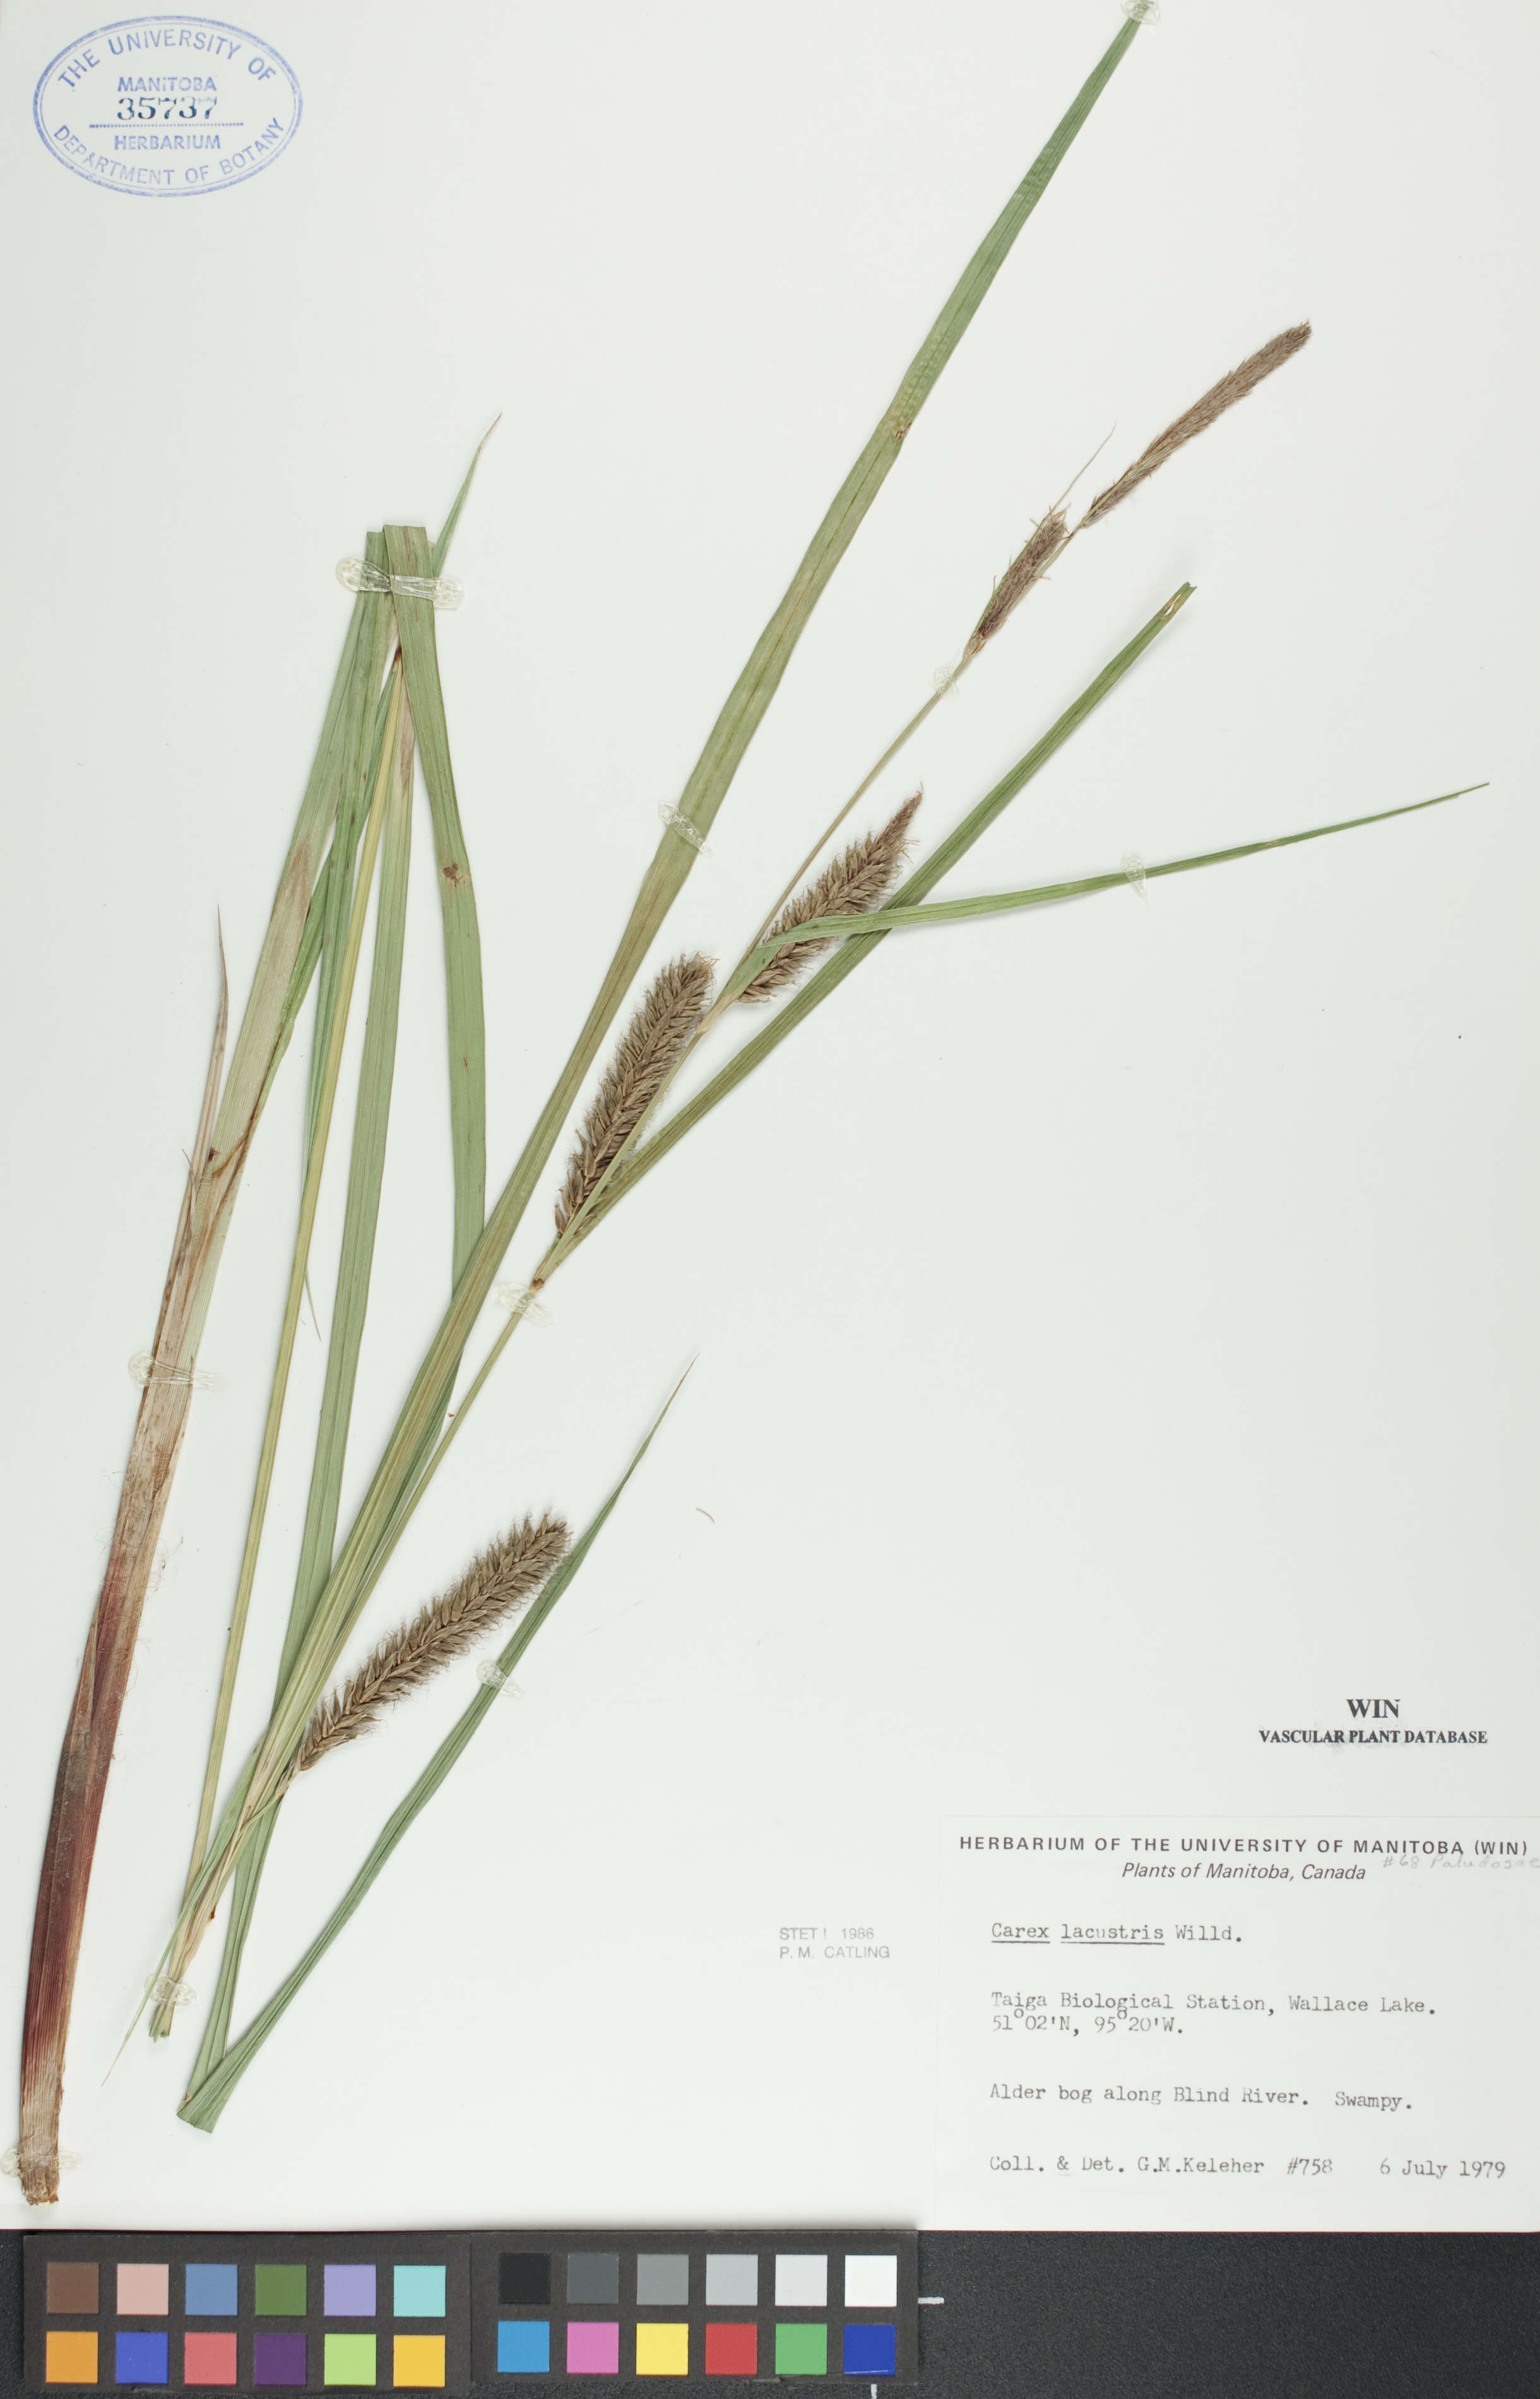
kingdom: Plantae
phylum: Tracheophyta
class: Liliopsida
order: Poales
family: Cyperaceae
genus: Carex
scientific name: Carex lacustris
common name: Common lake sedge
